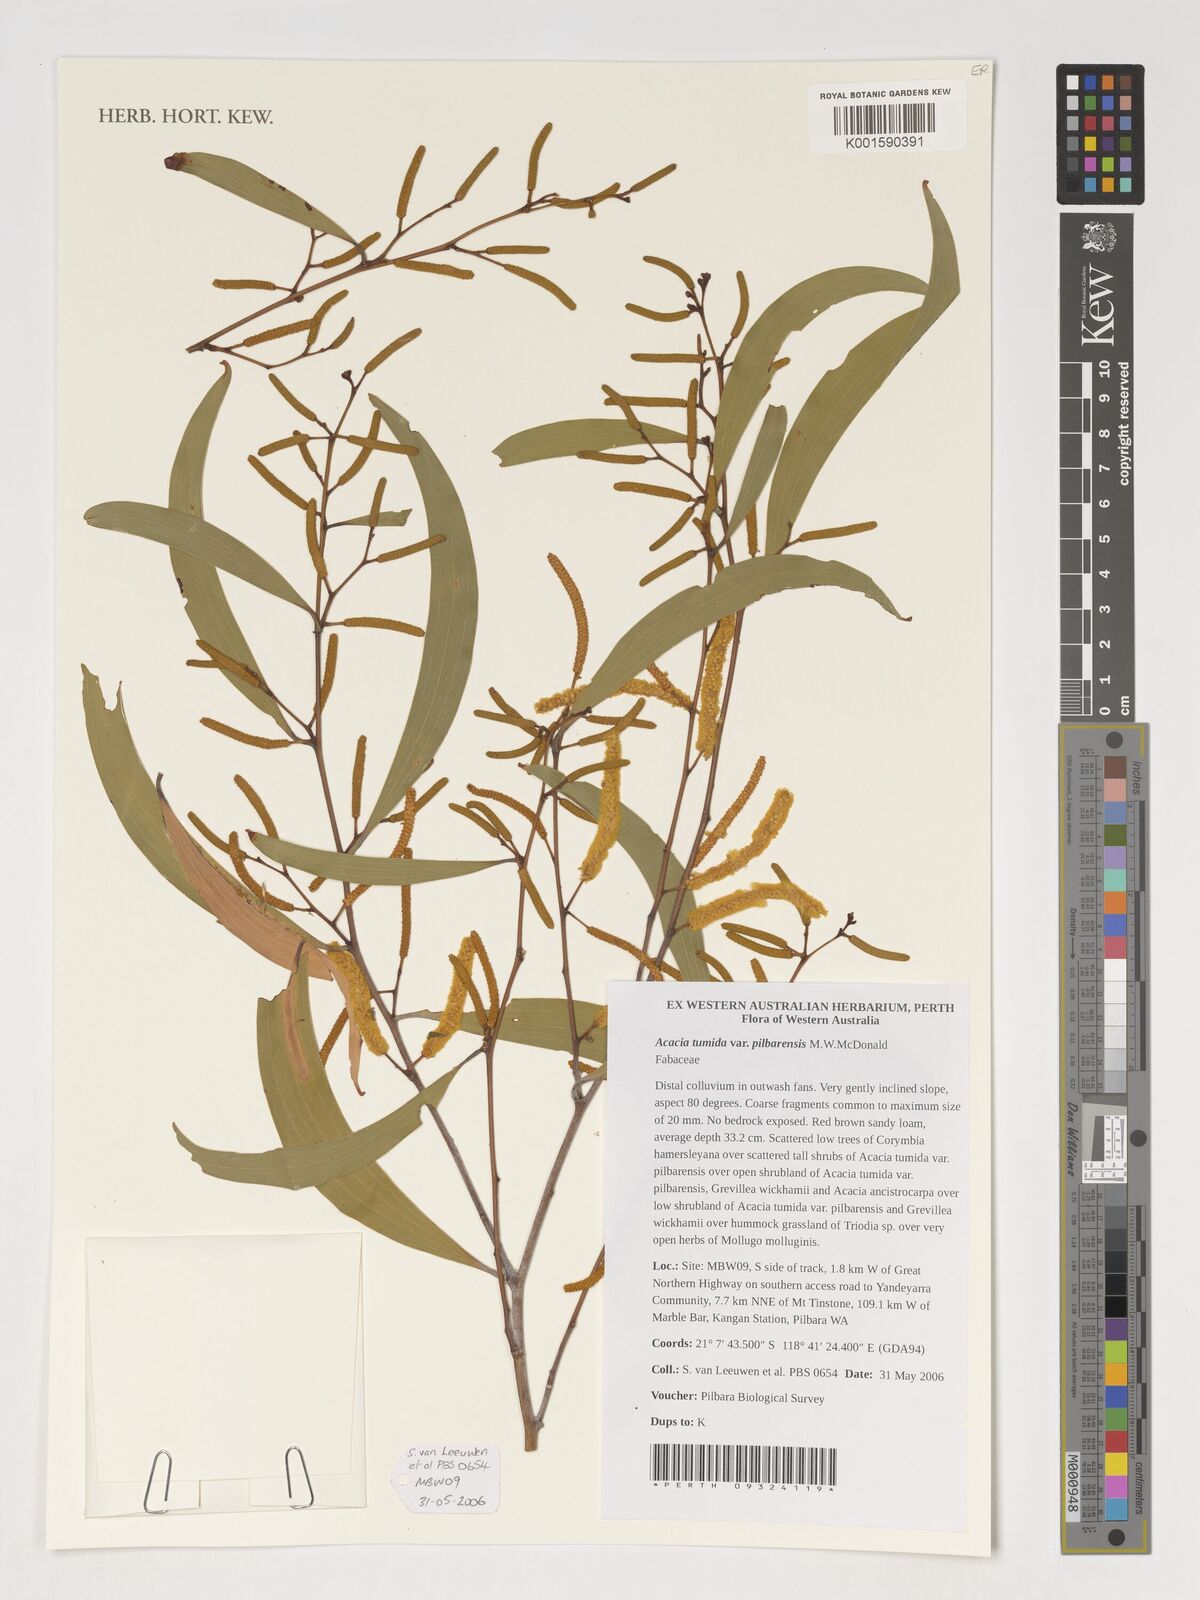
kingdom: Plantae
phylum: Tracheophyta
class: Magnoliopsida
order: Fabales
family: Fabaceae
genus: Acacia
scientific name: Acacia tumida
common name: Pindan wattle
